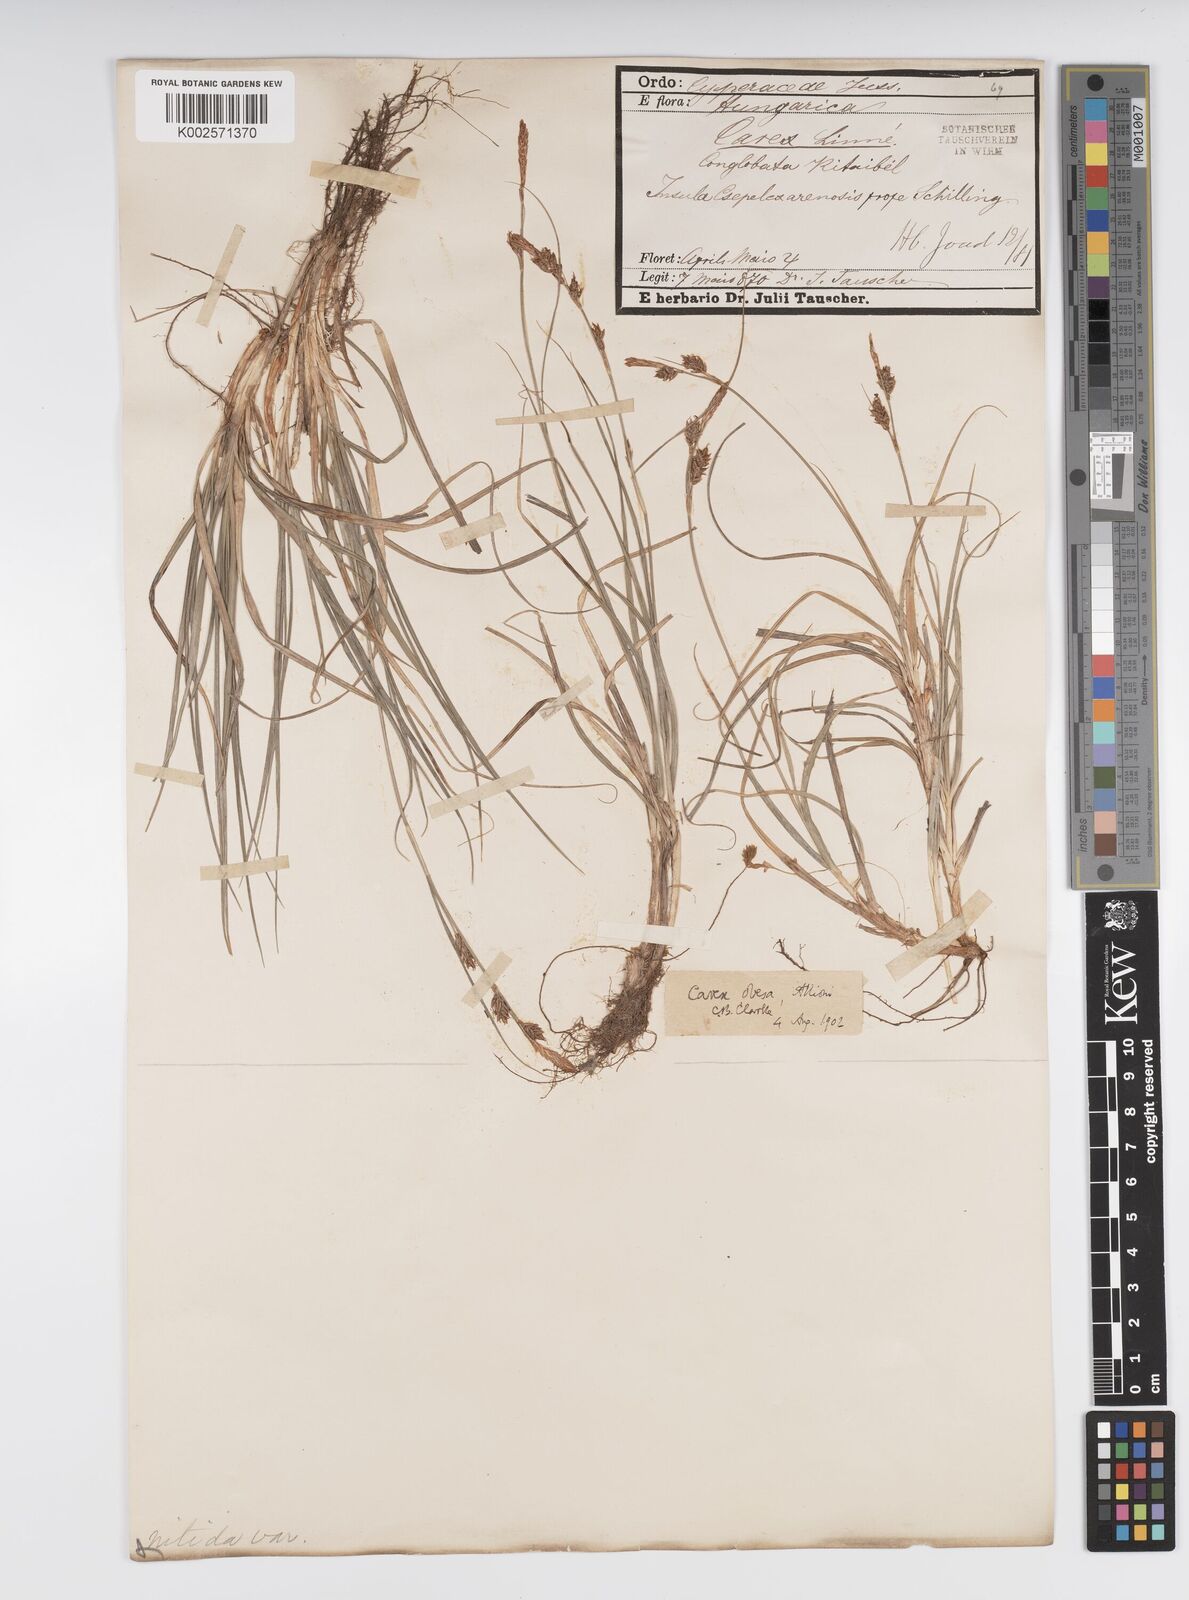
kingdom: Plantae
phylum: Tracheophyta
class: Liliopsida
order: Poales
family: Cyperaceae
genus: Carex
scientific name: Carex liparocarpos
